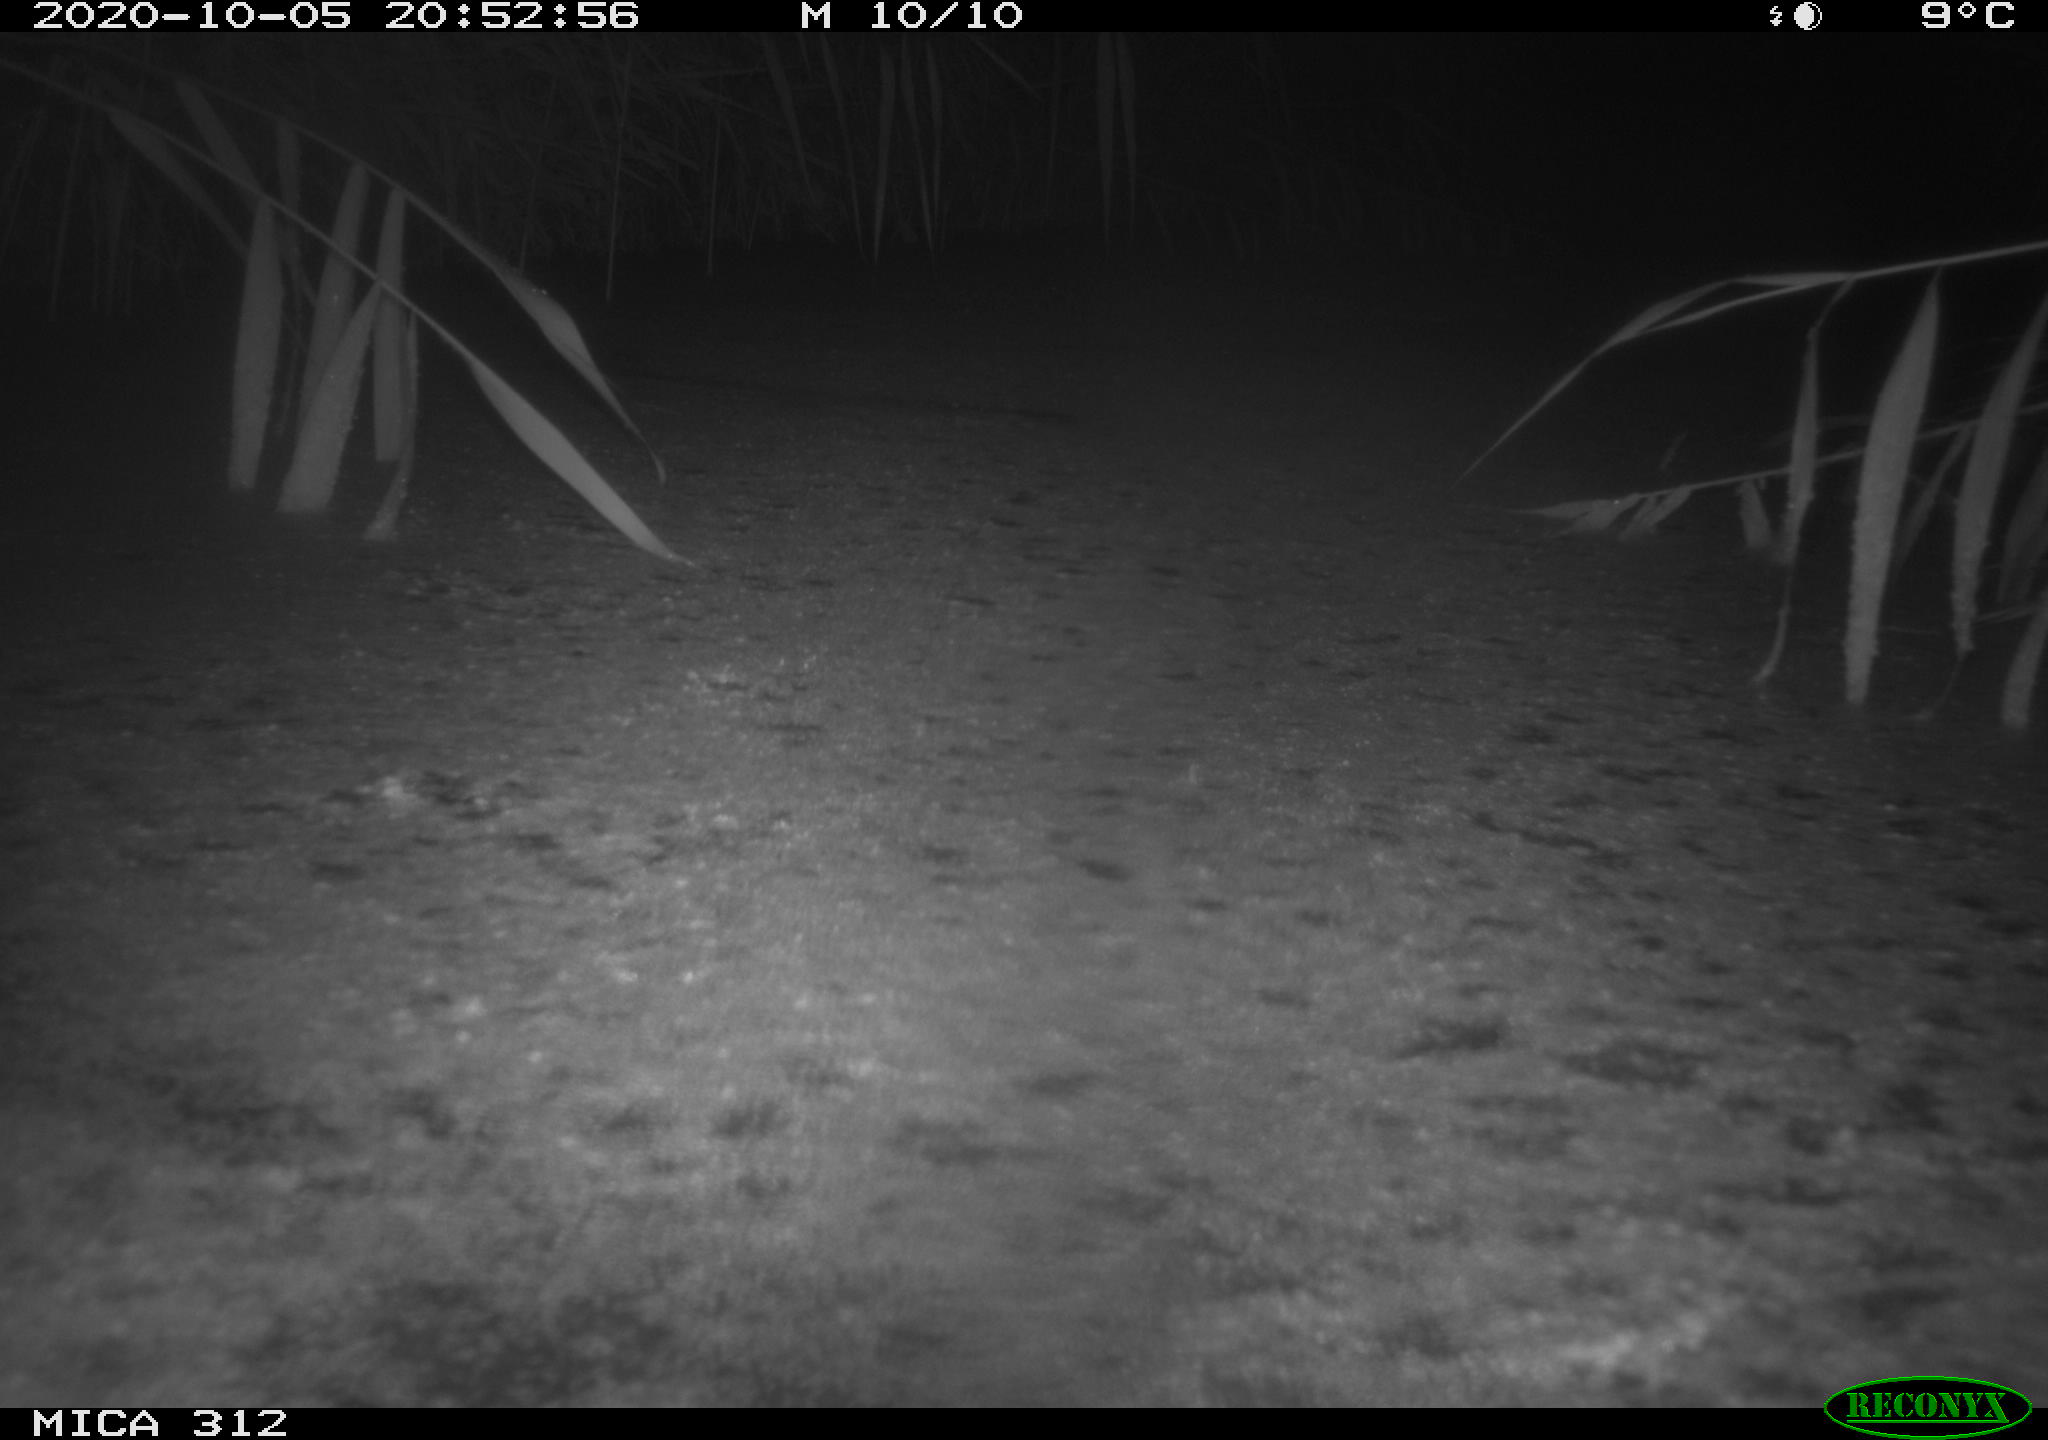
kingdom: Animalia
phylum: Chordata
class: Mammalia
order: Rodentia
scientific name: Rodentia
